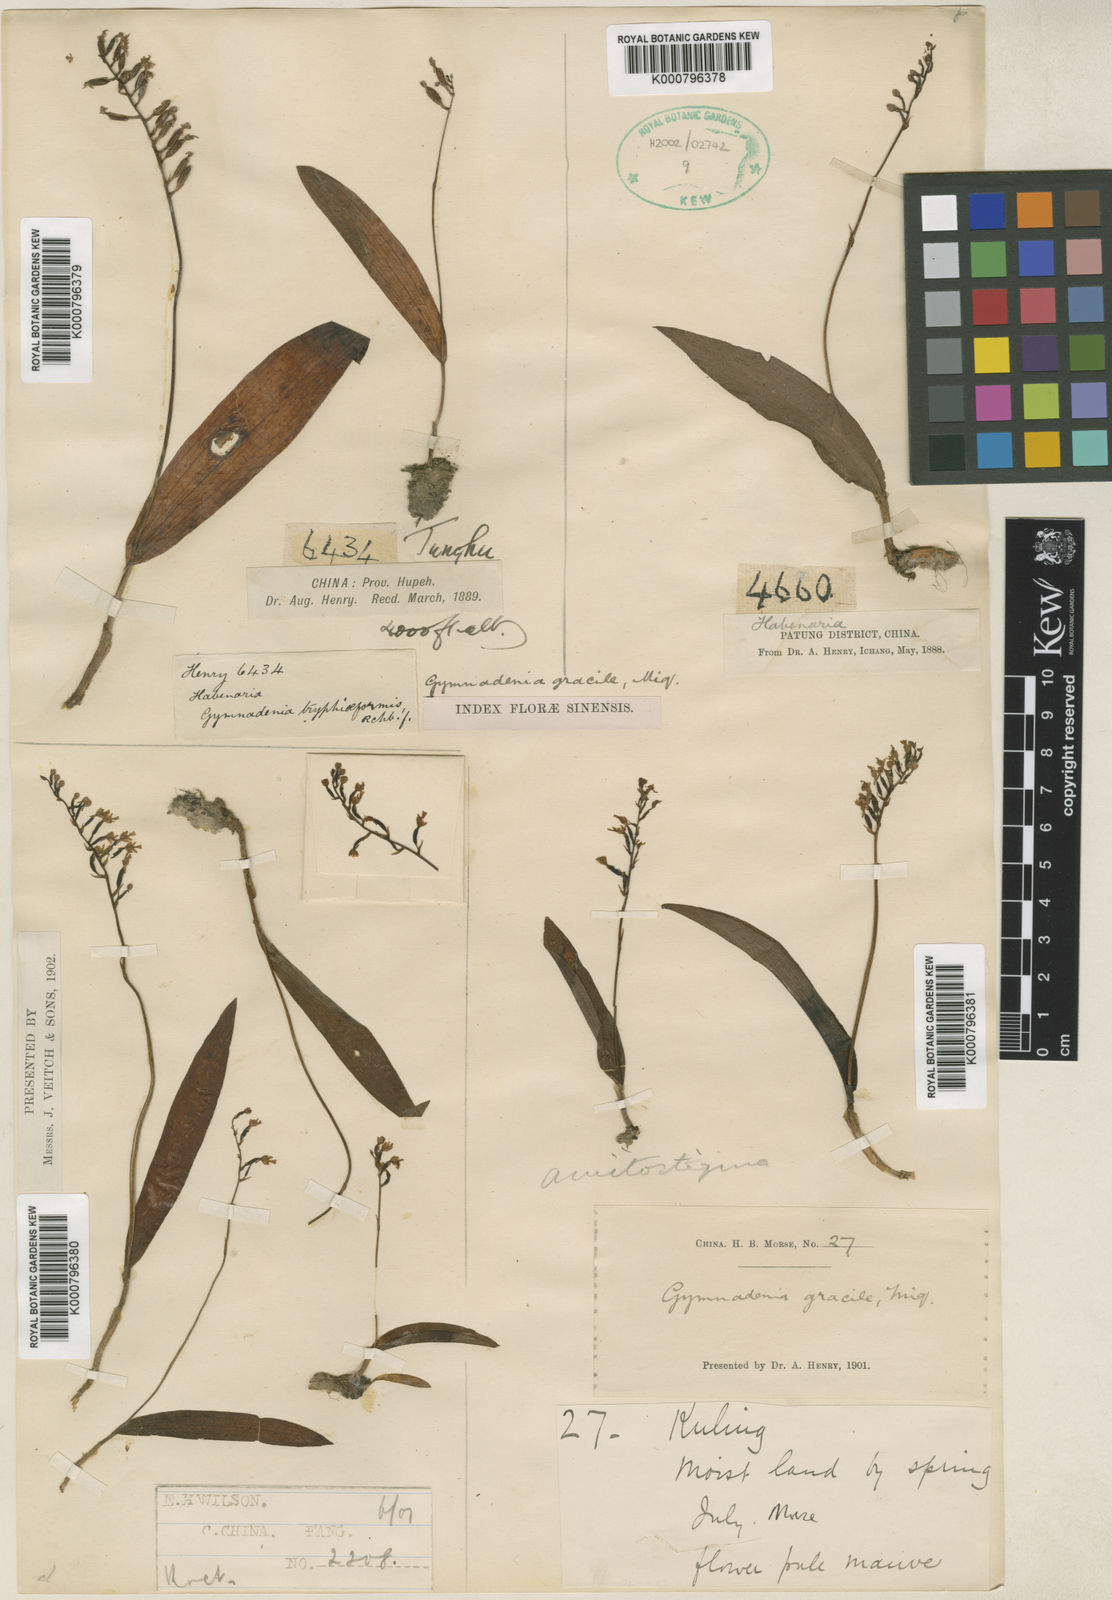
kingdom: Plantae
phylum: Tracheophyta
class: Liliopsida
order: Asparagales
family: Orchidaceae
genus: Hemipilia
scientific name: Hemipilia gracilis
